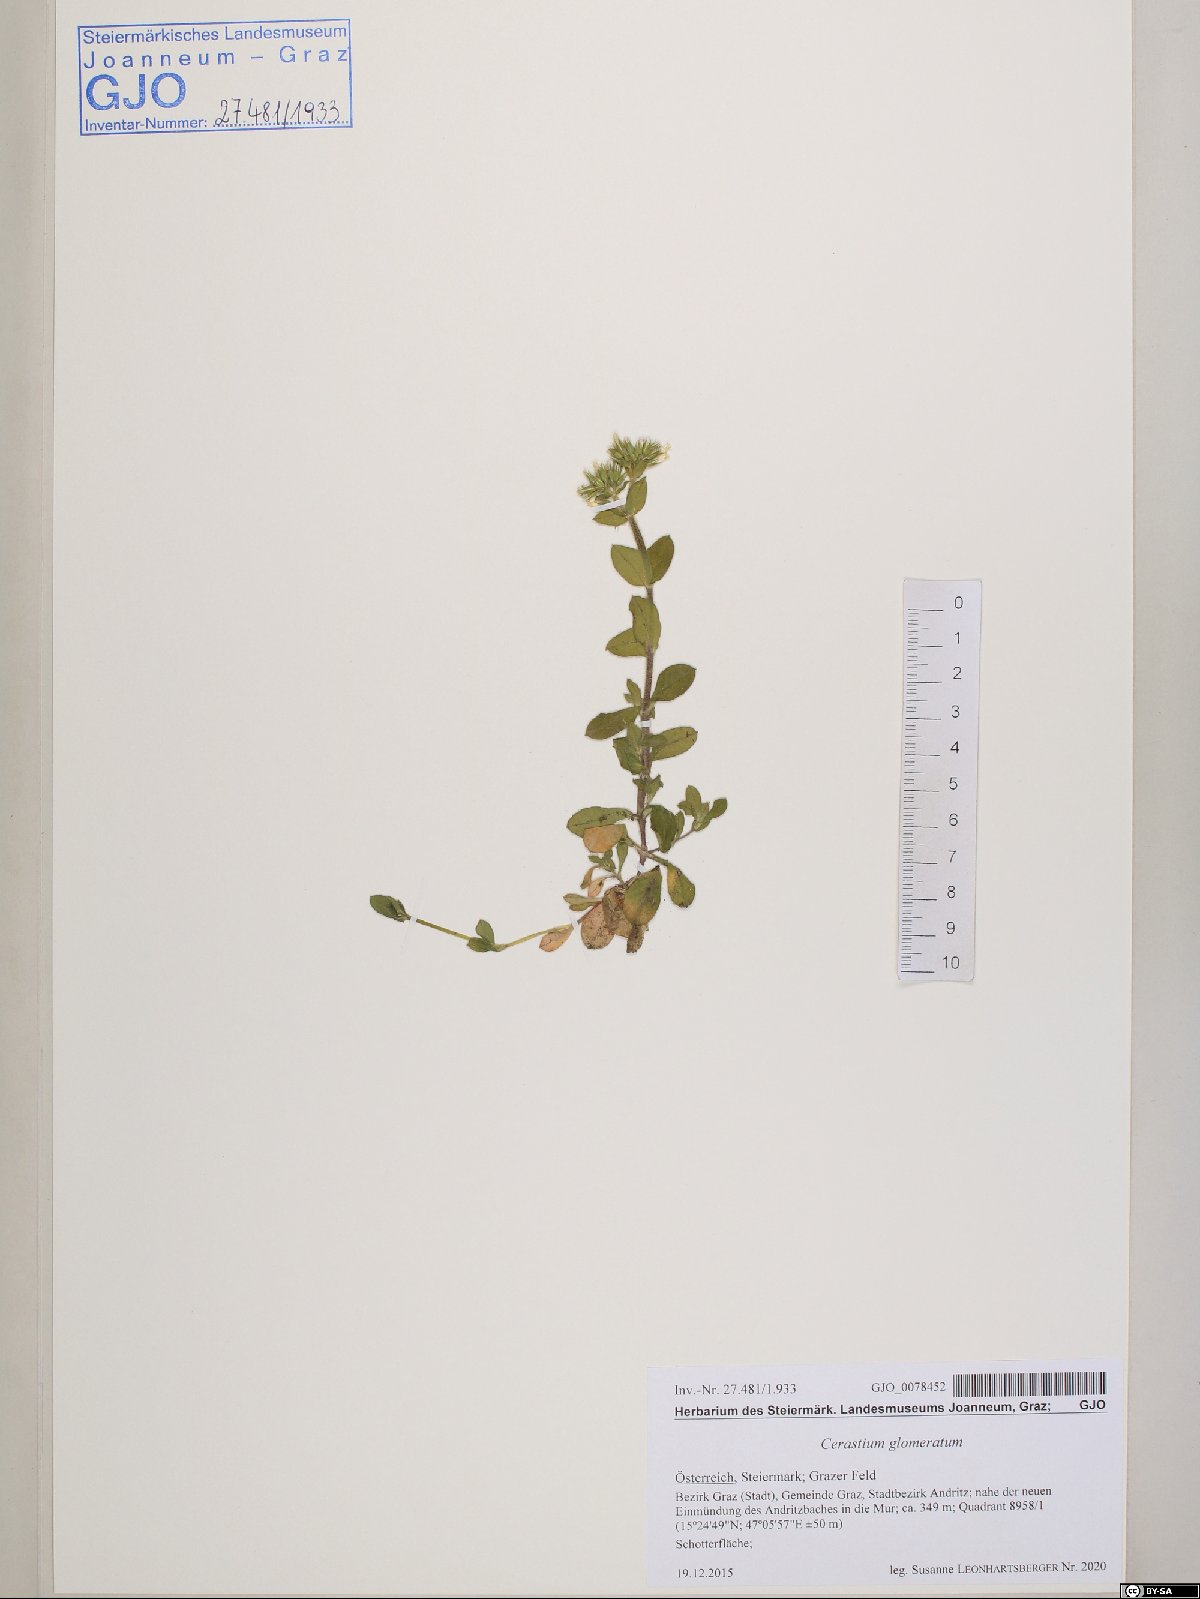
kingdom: Plantae
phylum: Tracheophyta
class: Magnoliopsida
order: Caryophyllales
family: Caryophyllaceae
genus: Cerastium
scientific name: Cerastium glomeratum
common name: Sticky chickweed
